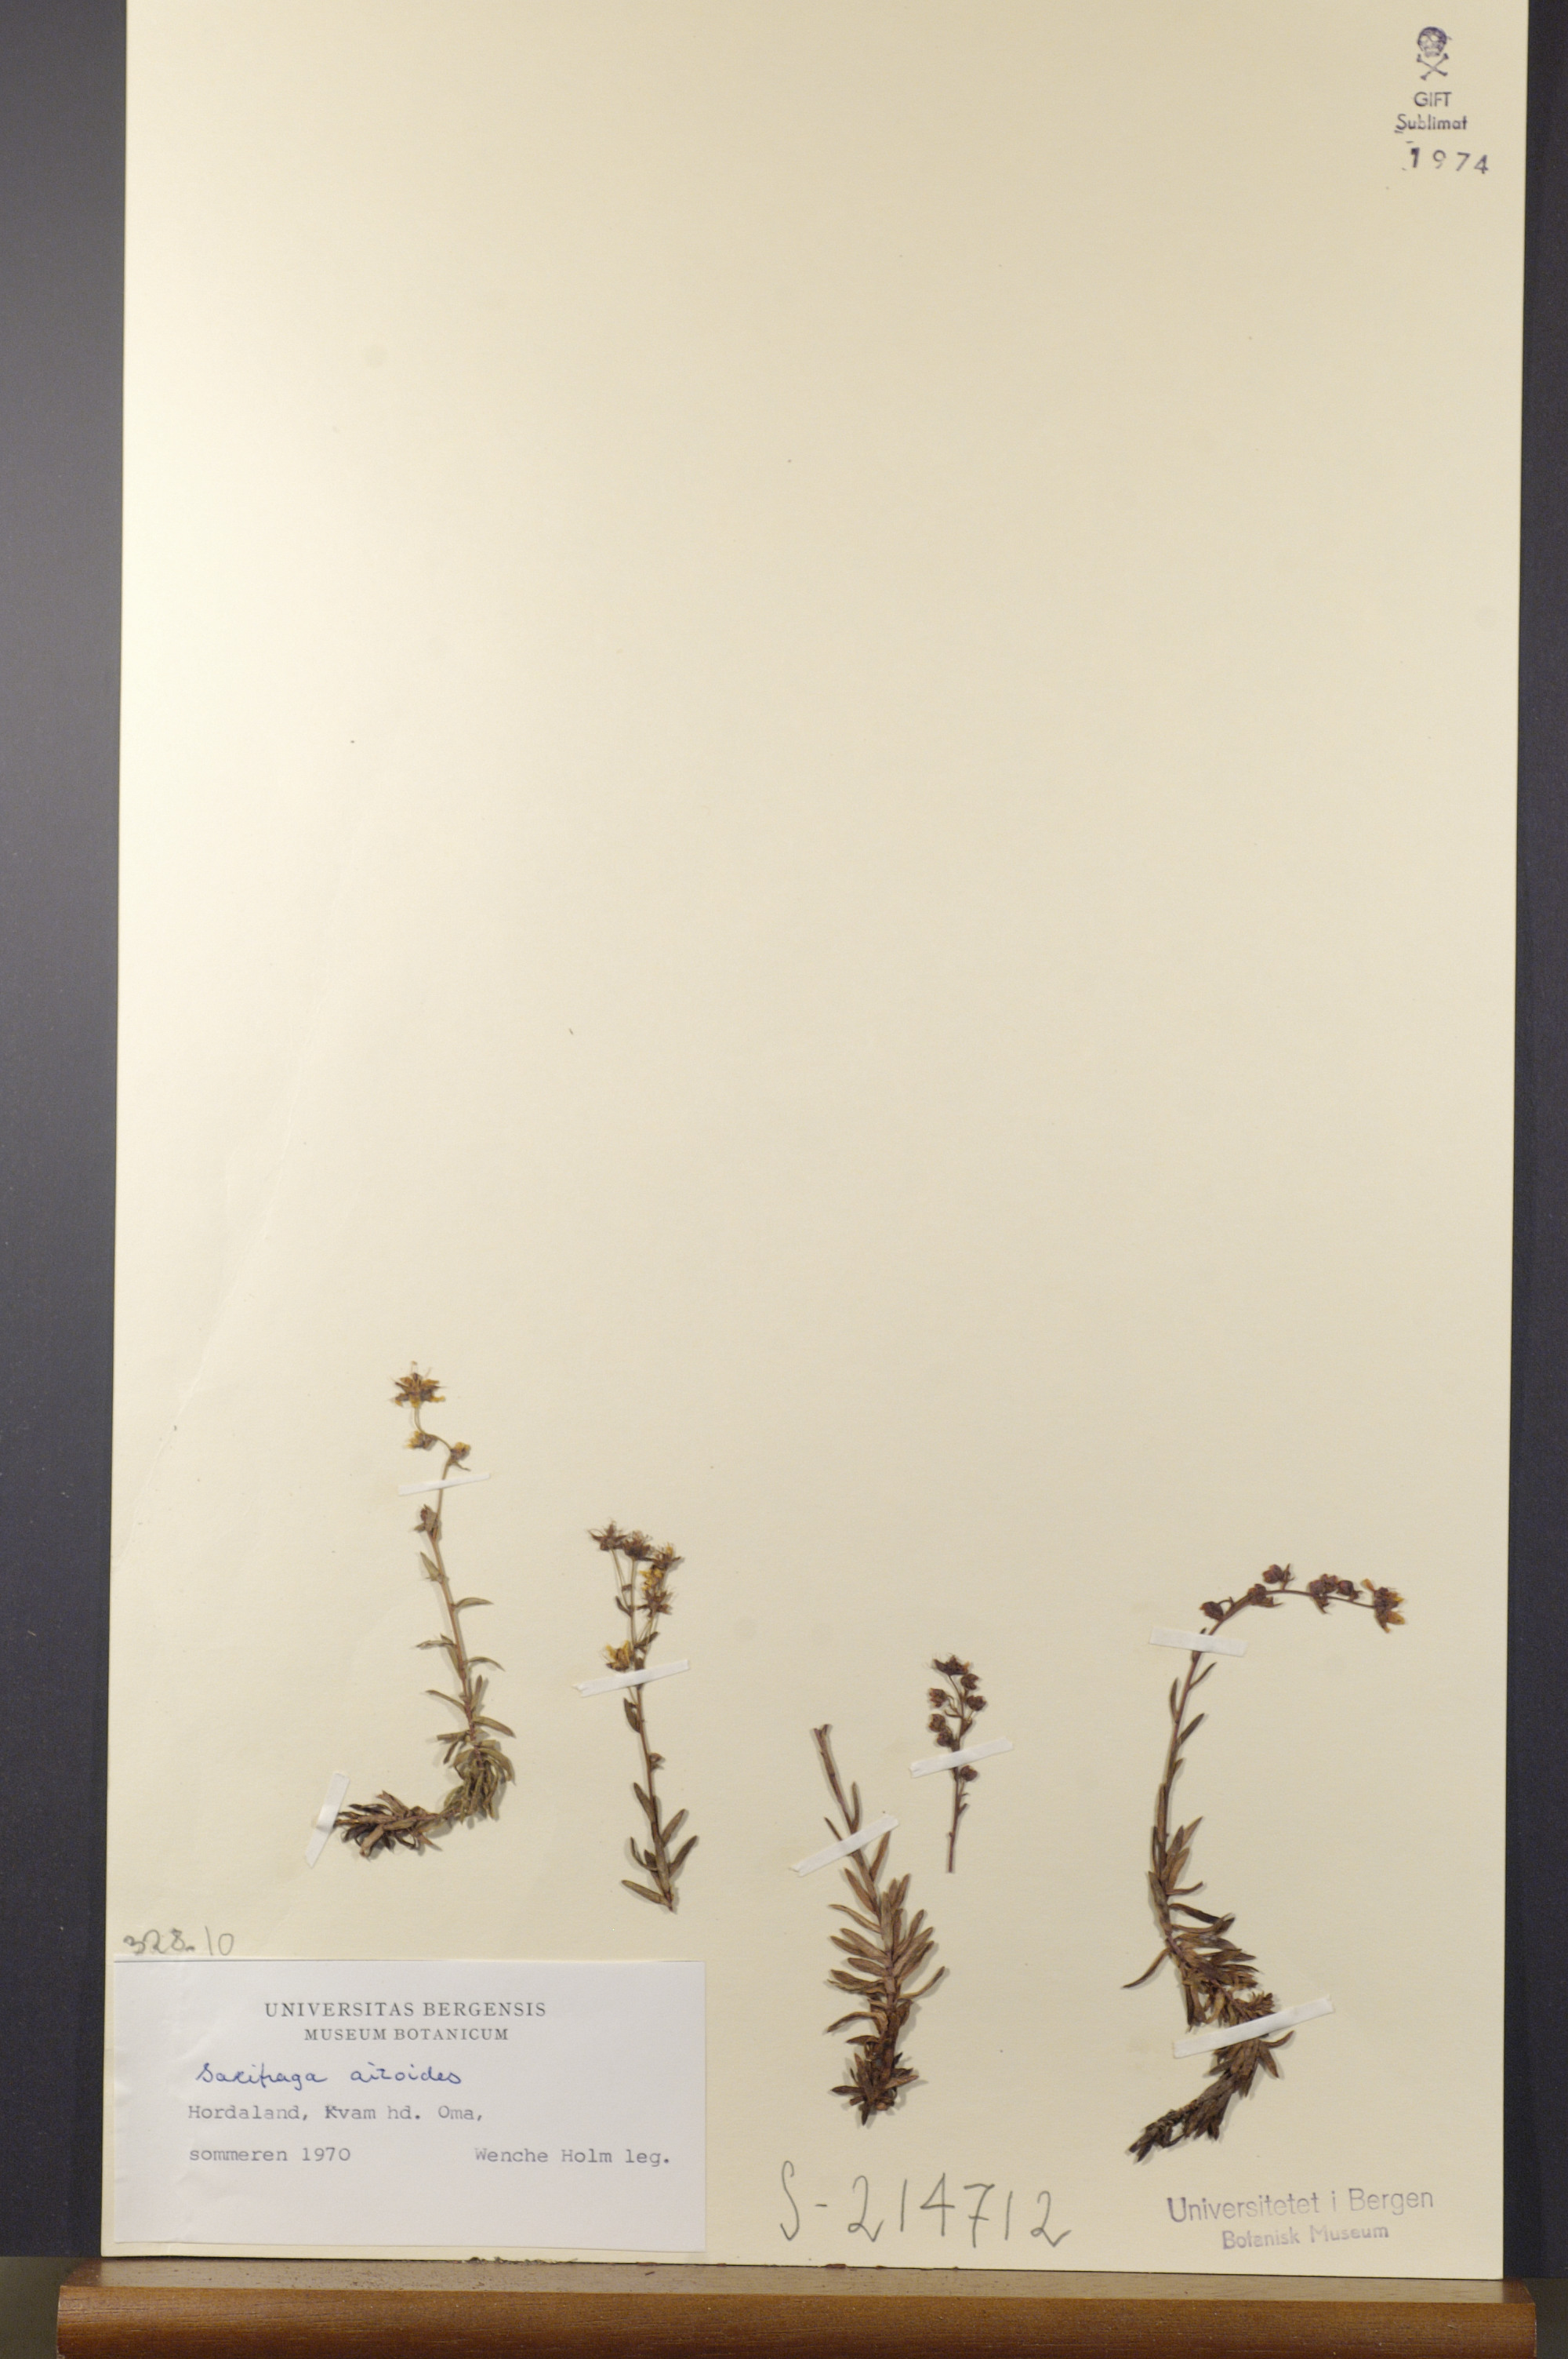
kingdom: Plantae
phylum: Tracheophyta
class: Magnoliopsida
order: Saxifragales
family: Saxifragaceae
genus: Saxifraga
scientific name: Saxifraga aizoides
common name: Yellow mountain saxifrage
